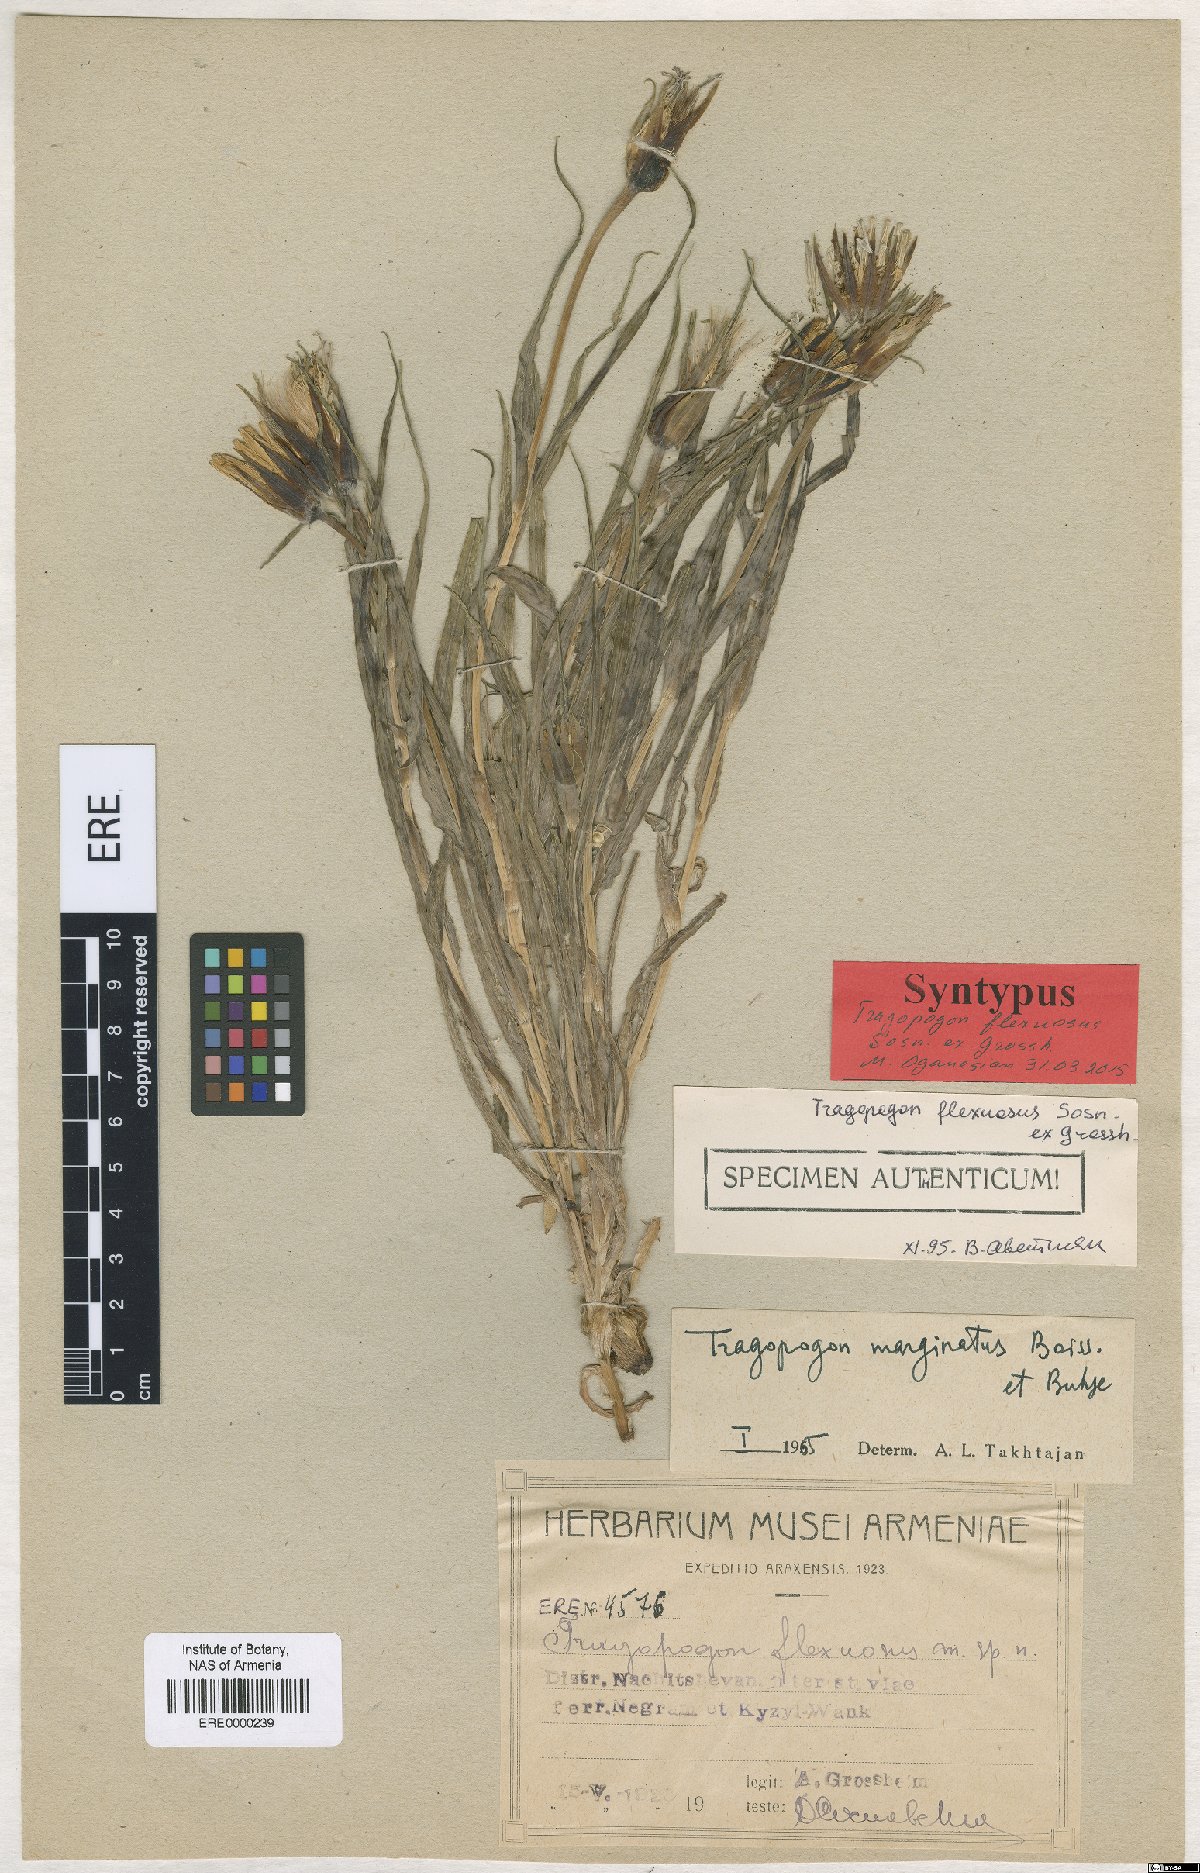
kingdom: Plantae
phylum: Tracheophyta
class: Magnoliopsida
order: Asterales
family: Asteraceae
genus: Tragopogon
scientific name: Tragopogon marginatus
